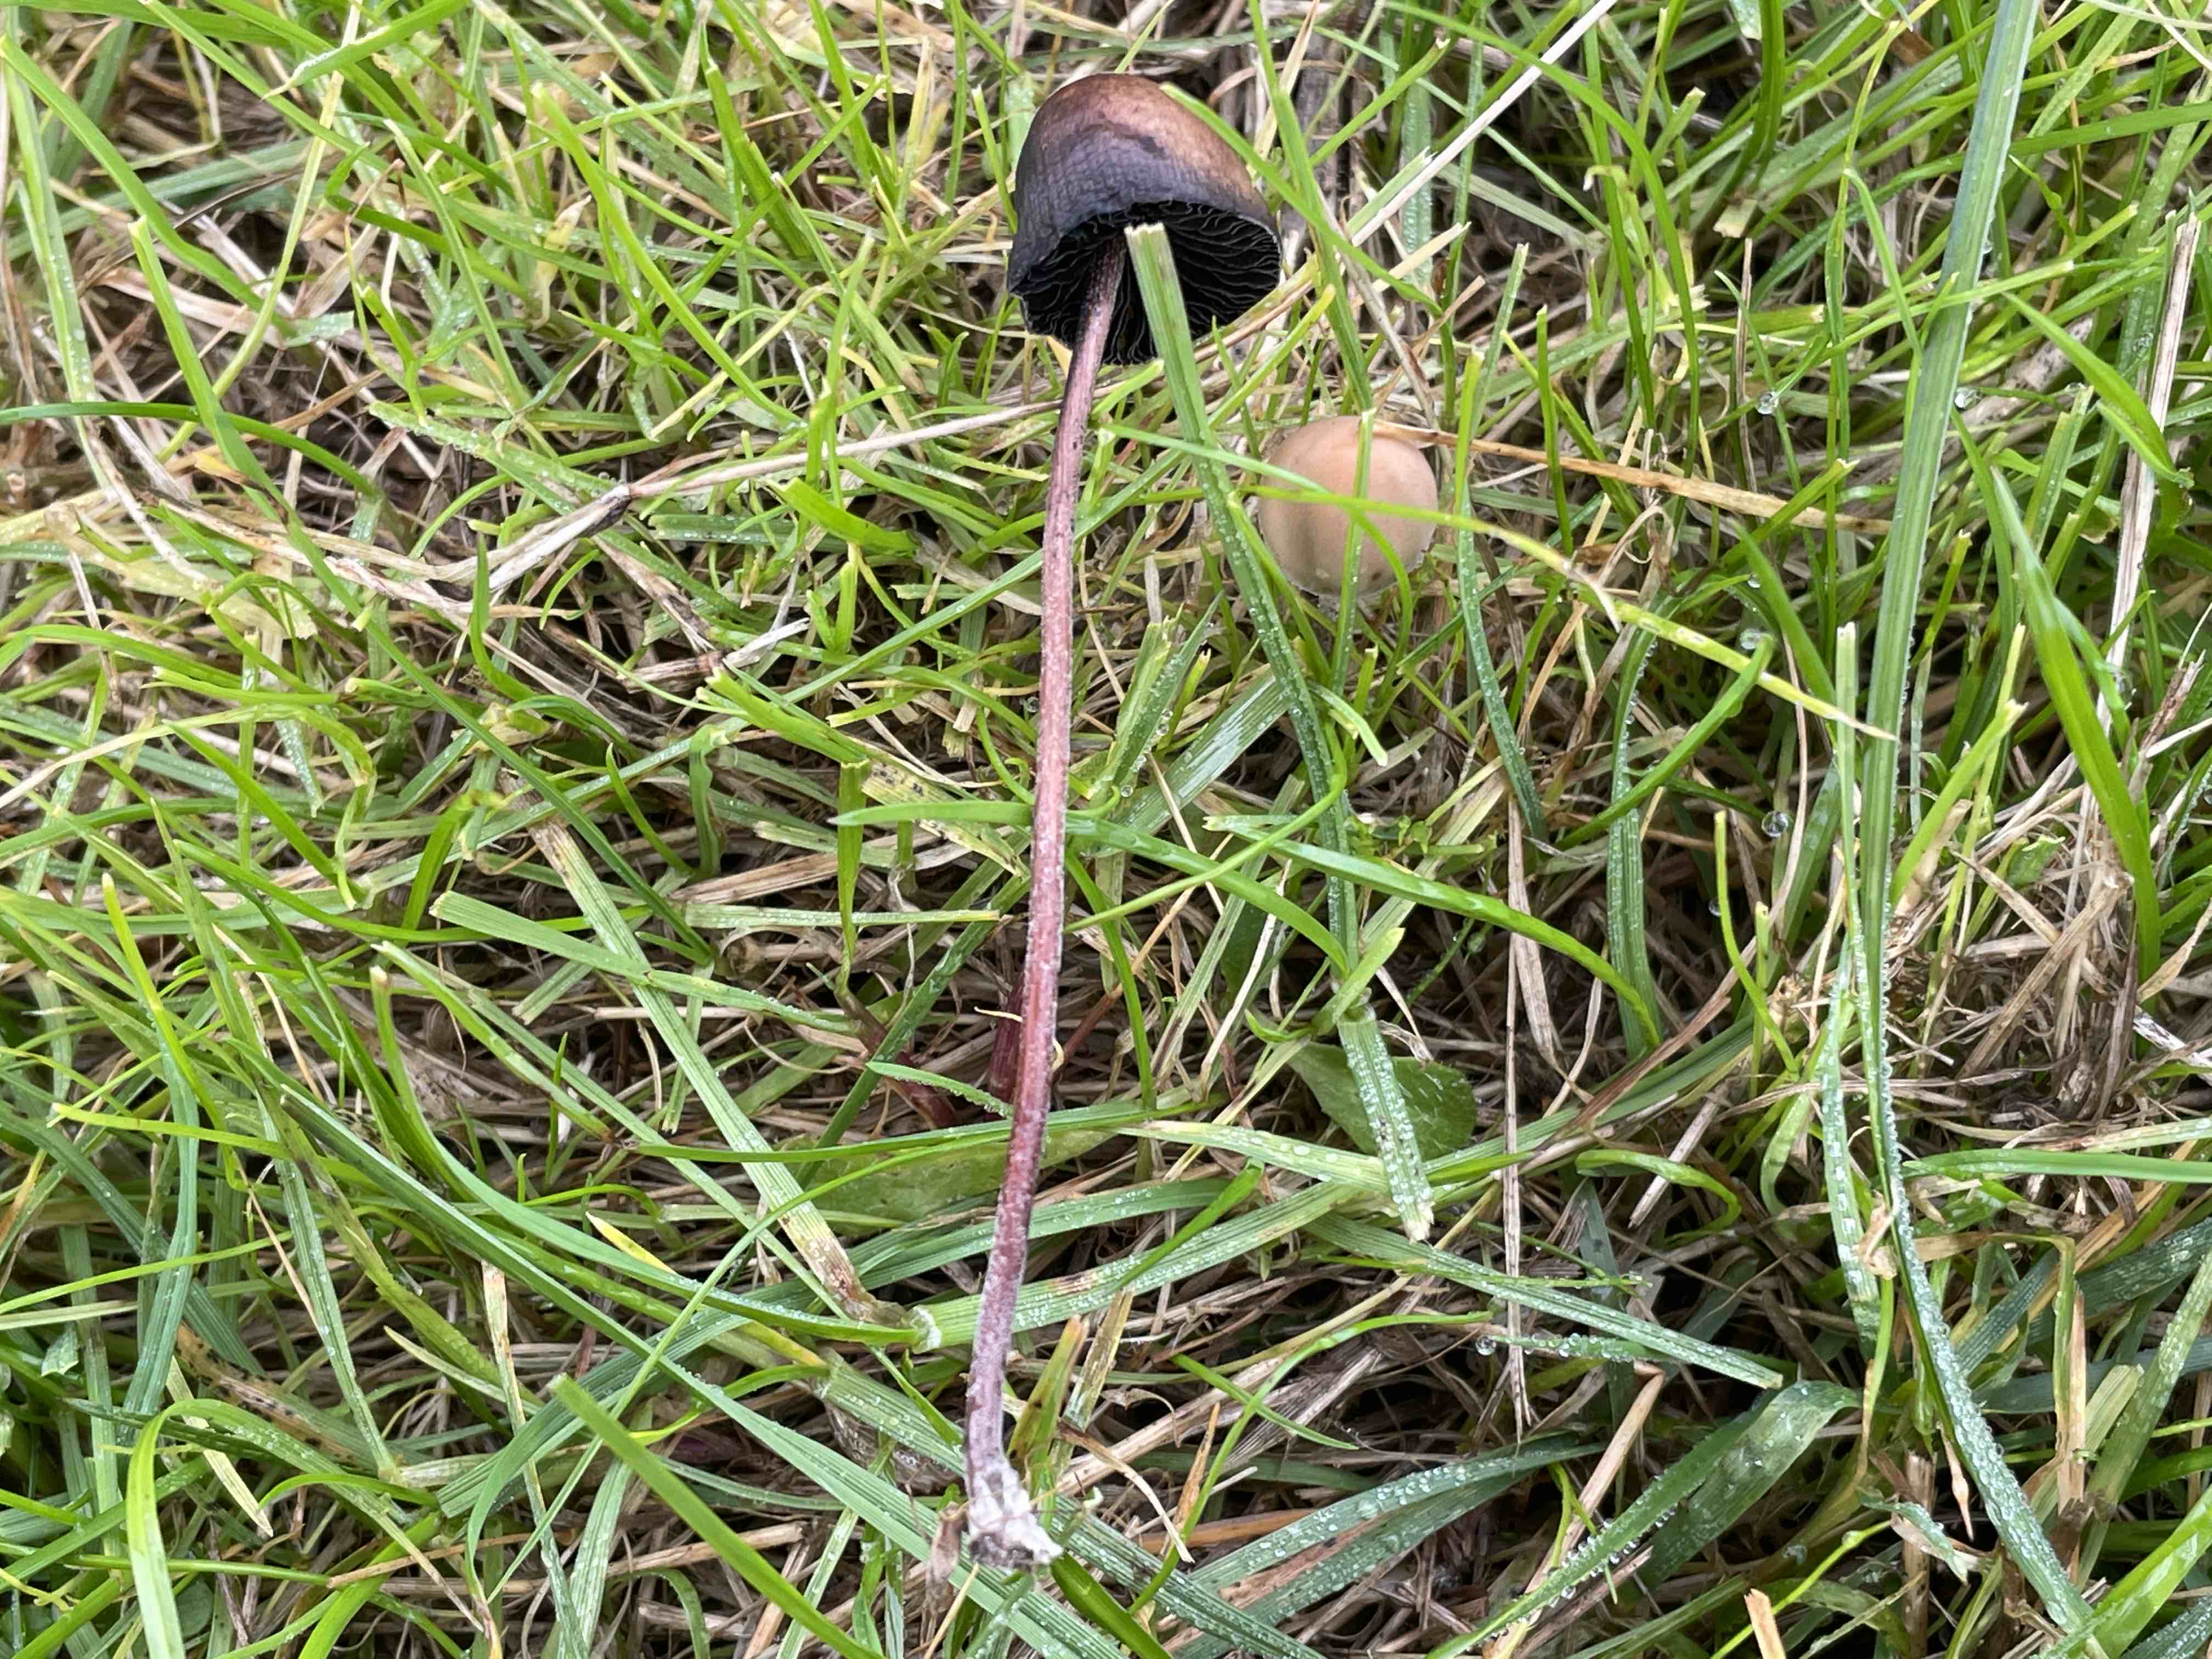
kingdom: Fungi
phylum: Basidiomycota
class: Agaricomycetes
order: Agaricales
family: Bolbitiaceae
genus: Panaeolus
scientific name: Panaeolus acuminatus
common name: høj glanshat
